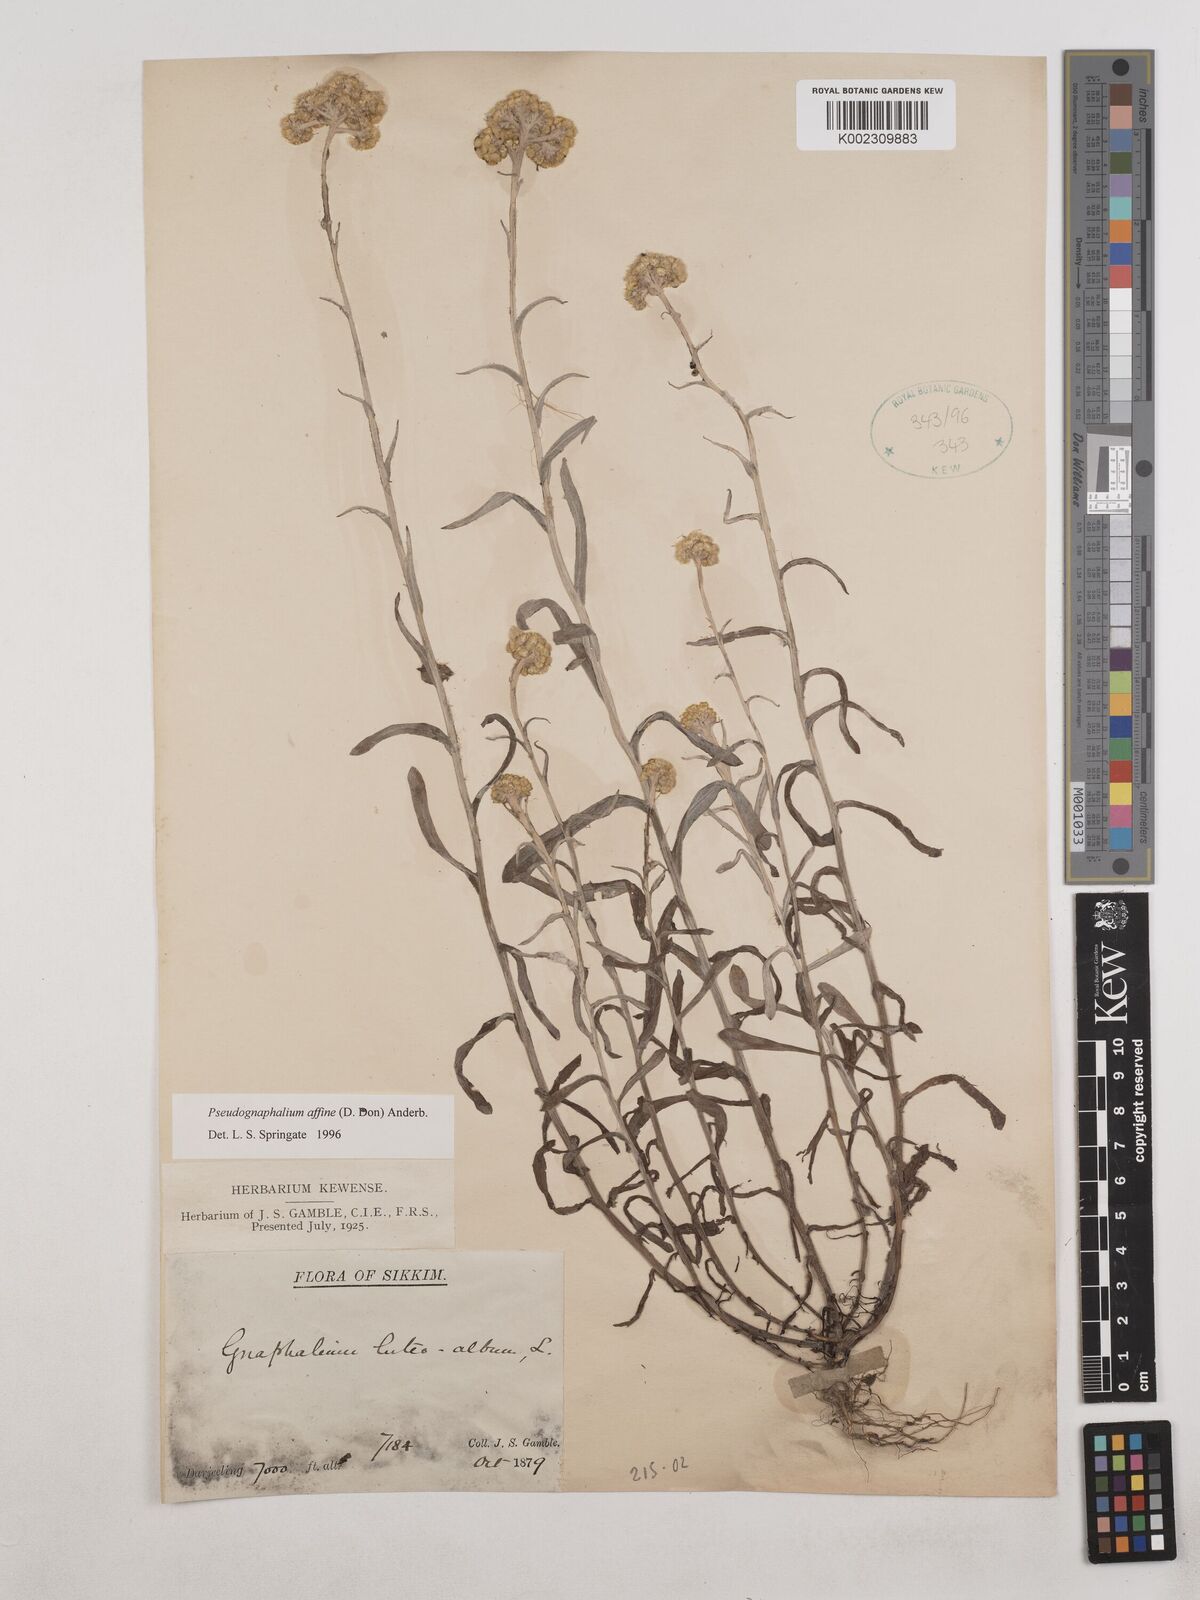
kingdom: Plantae
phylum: Tracheophyta
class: Magnoliopsida
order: Asterales
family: Asteraceae
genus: Helichrysum
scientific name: Helichrysum luteoalbum
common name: Daisy
